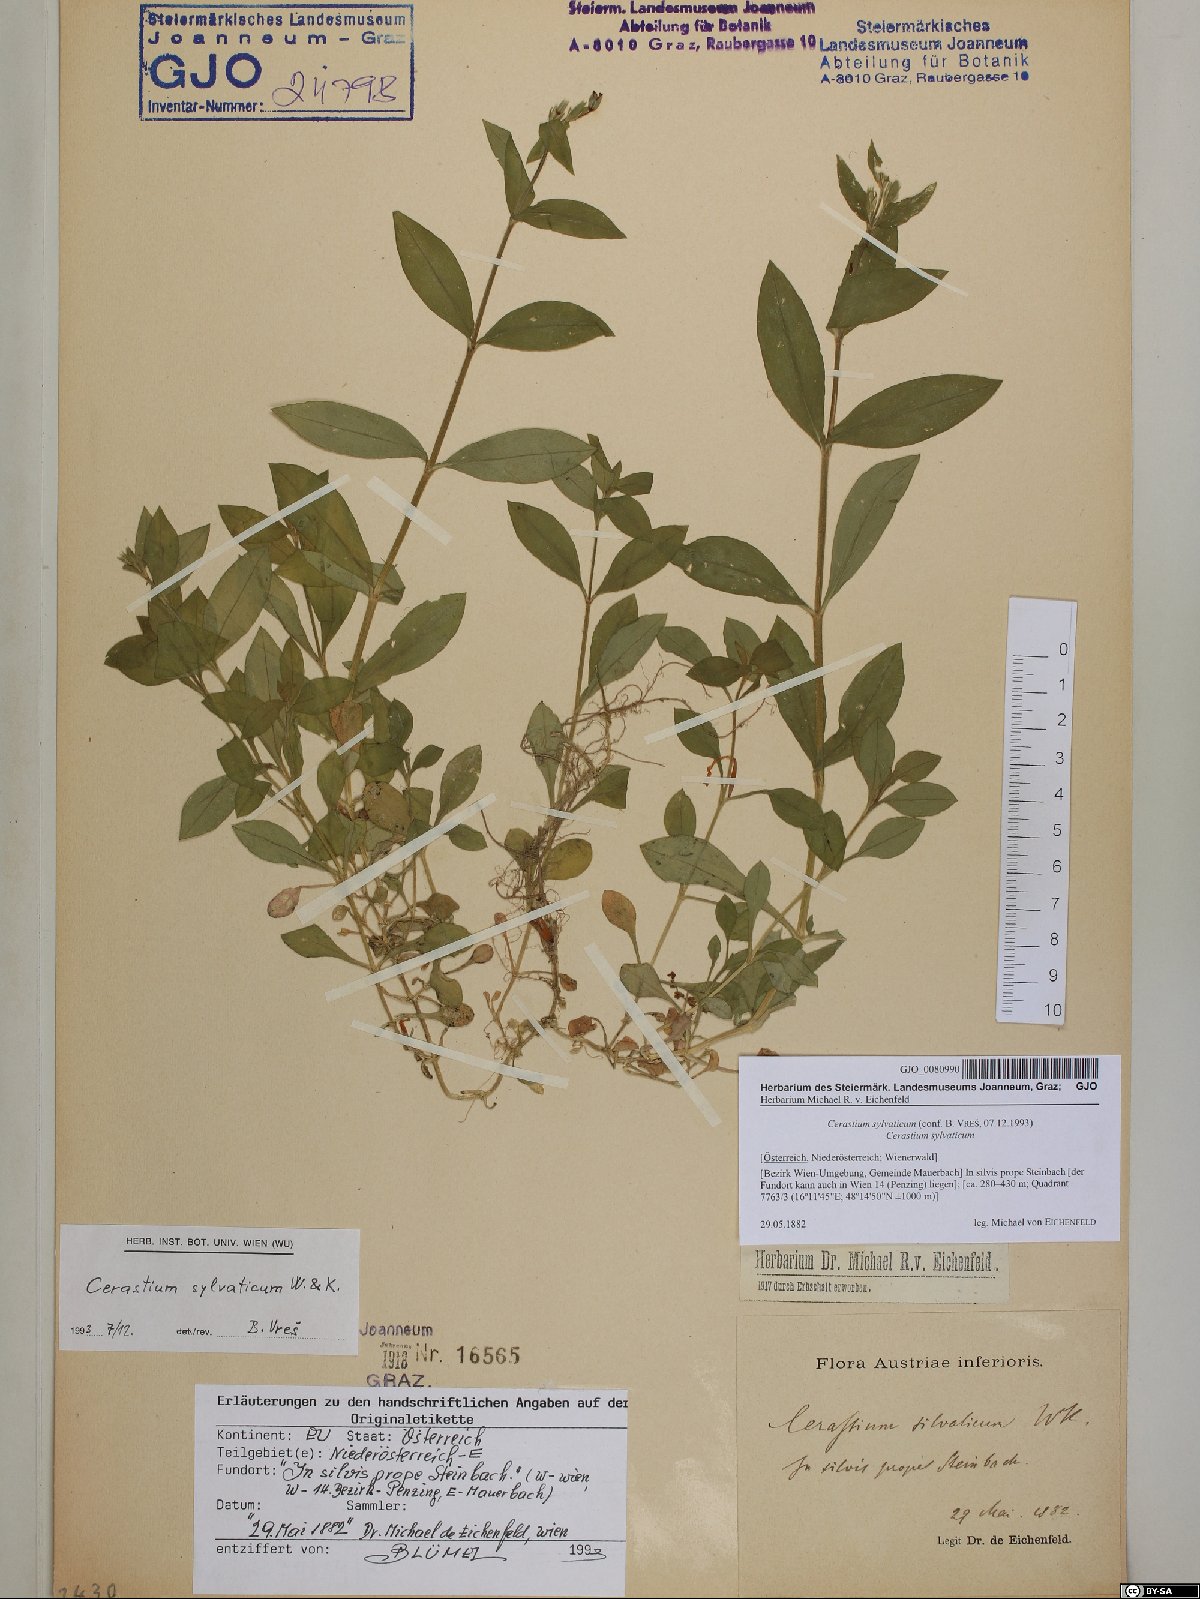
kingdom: Plantae
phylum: Tracheophyta
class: Magnoliopsida
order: Caryophyllales
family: Caryophyllaceae
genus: Cerastium
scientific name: Cerastium sylvaticum
